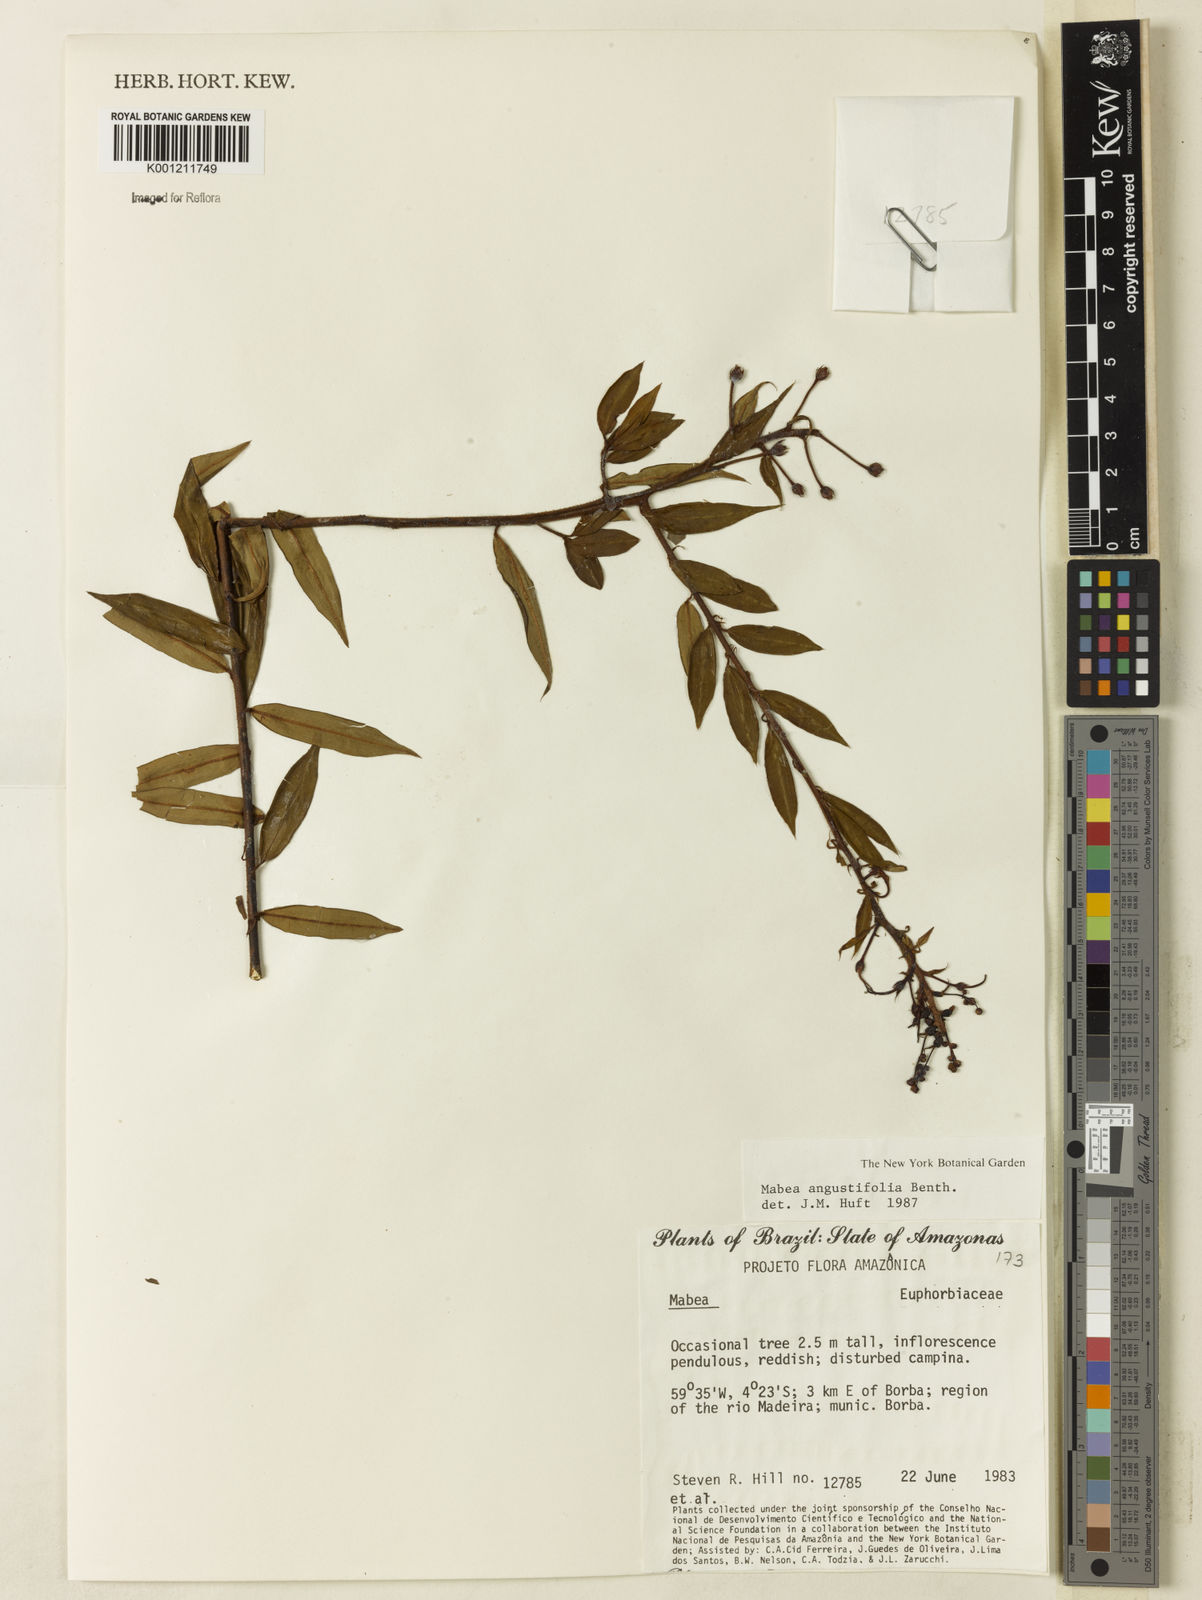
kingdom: Plantae
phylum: Tracheophyta
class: Magnoliopsida
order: Malpighiales
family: Euphorbiaceae
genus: Mabea
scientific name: Mabea angustifolia
